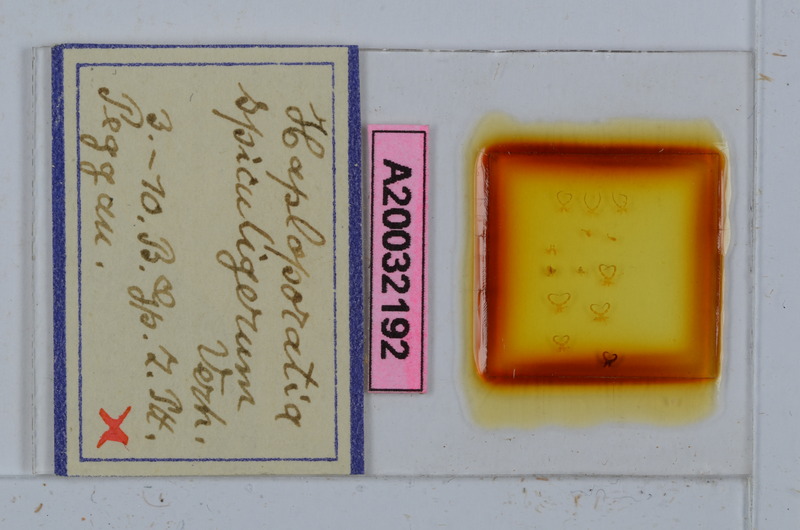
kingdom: Animalia
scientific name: Animalia
